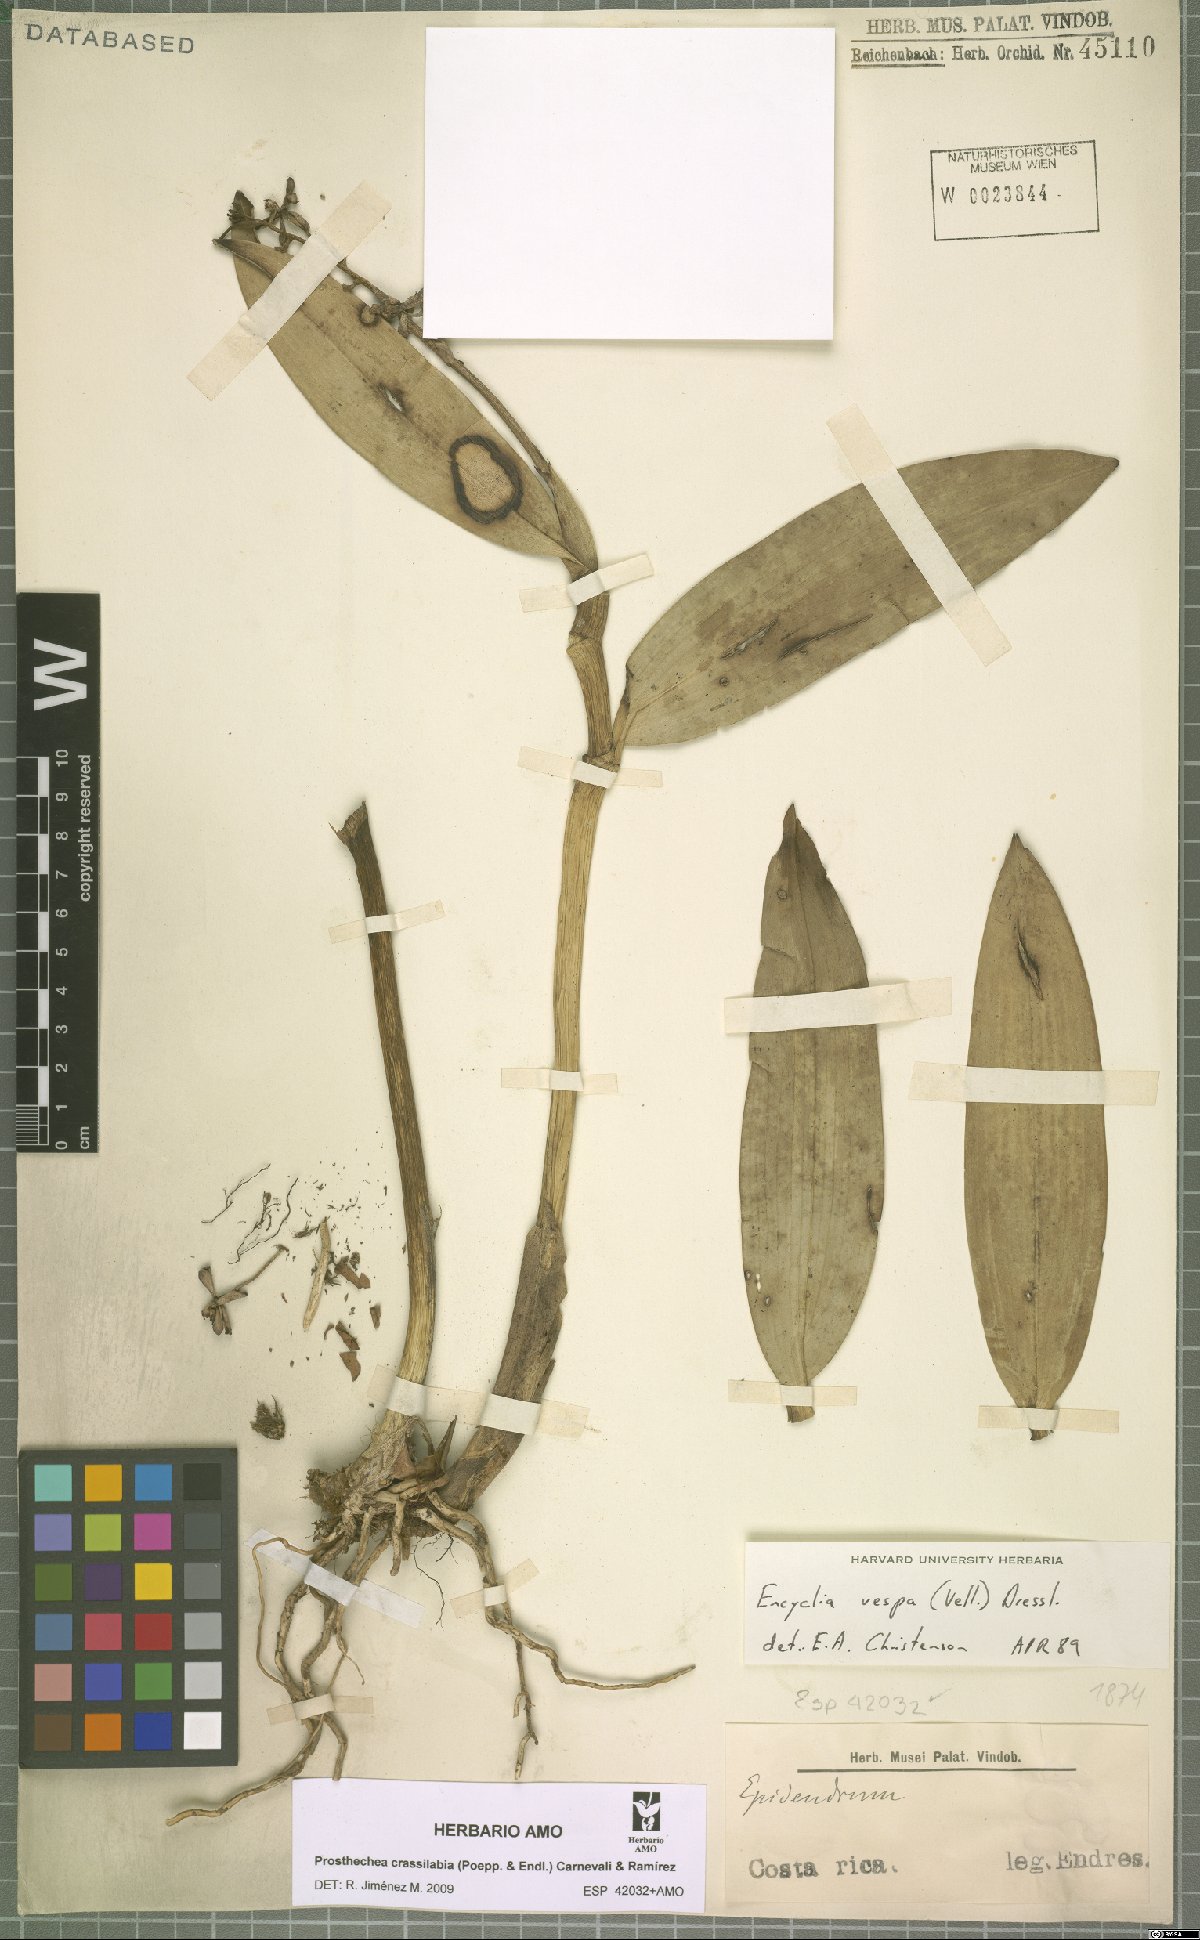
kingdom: Plantae
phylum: Tracheophyta
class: Liliopsida
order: Asparagales
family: Orchidaceae
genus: Prosthechea
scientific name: Prosthechea crassilabia
